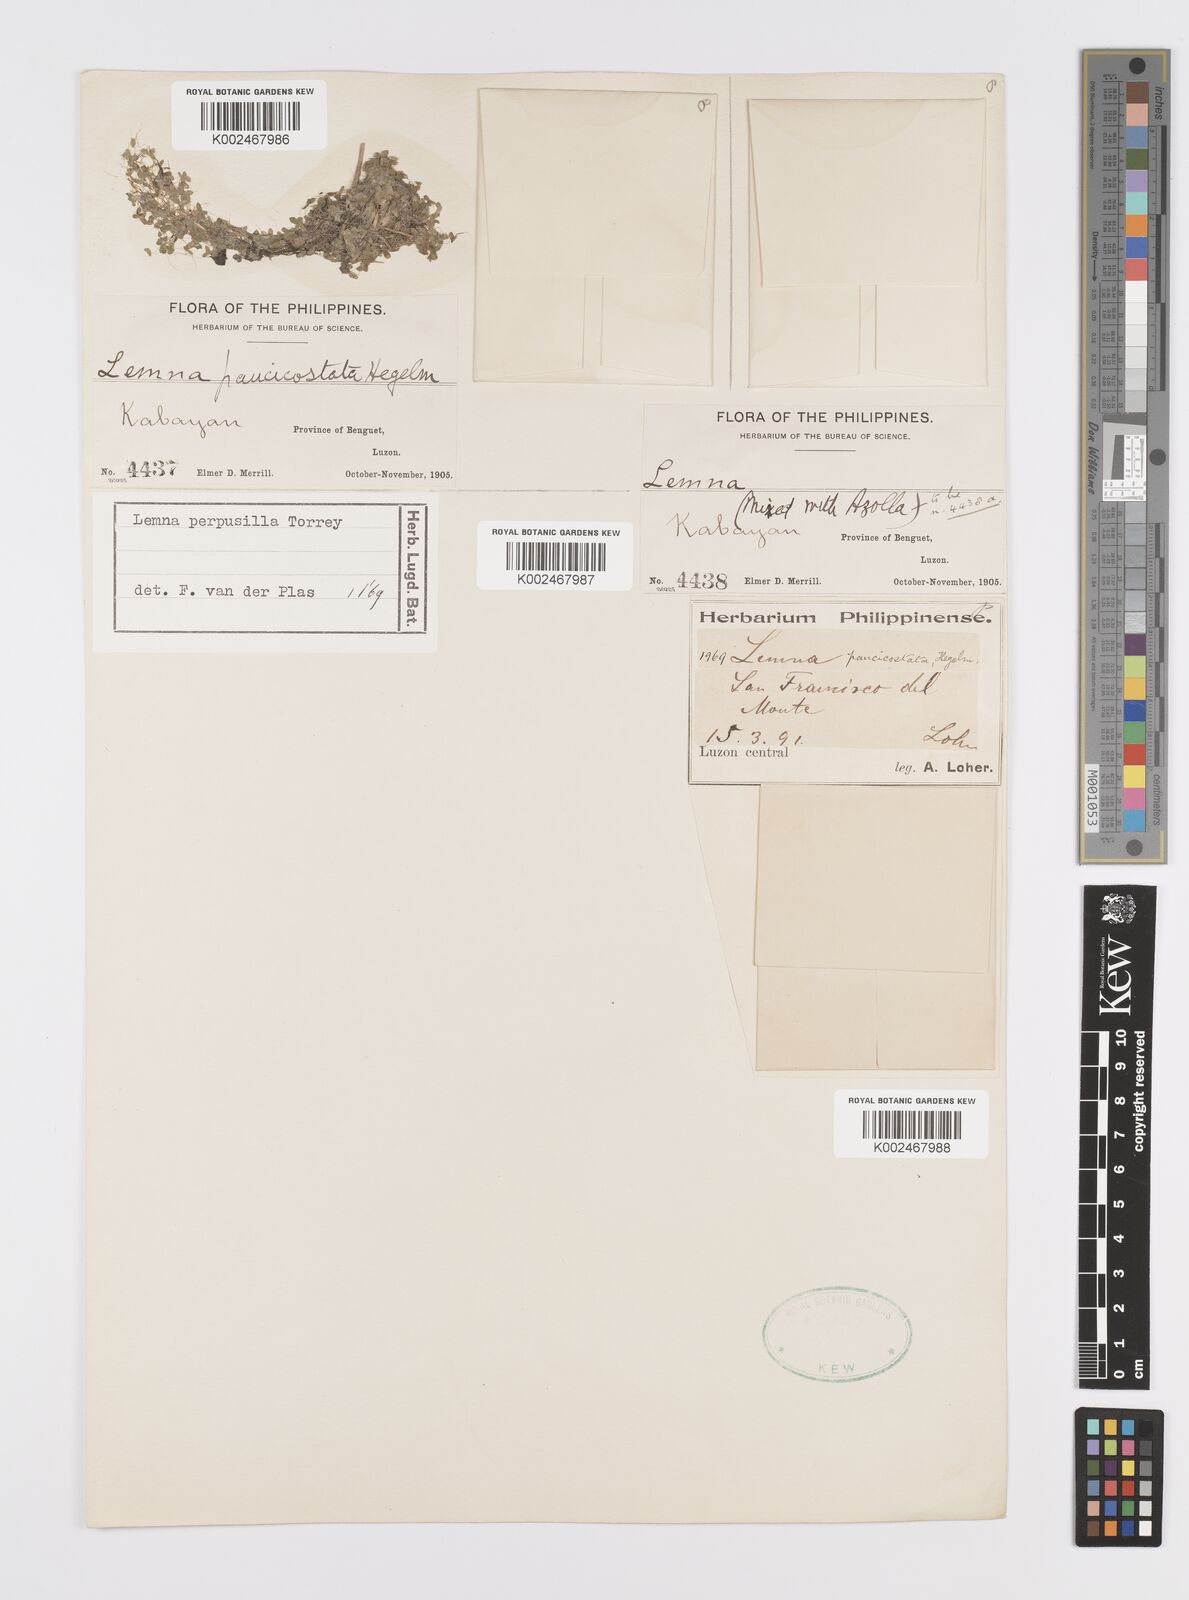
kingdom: Plantae
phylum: Tracheophyta
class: Liliopsida
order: Alismatales
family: Araceae
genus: Lemna
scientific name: Lemna perpusilla
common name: Duckweed
